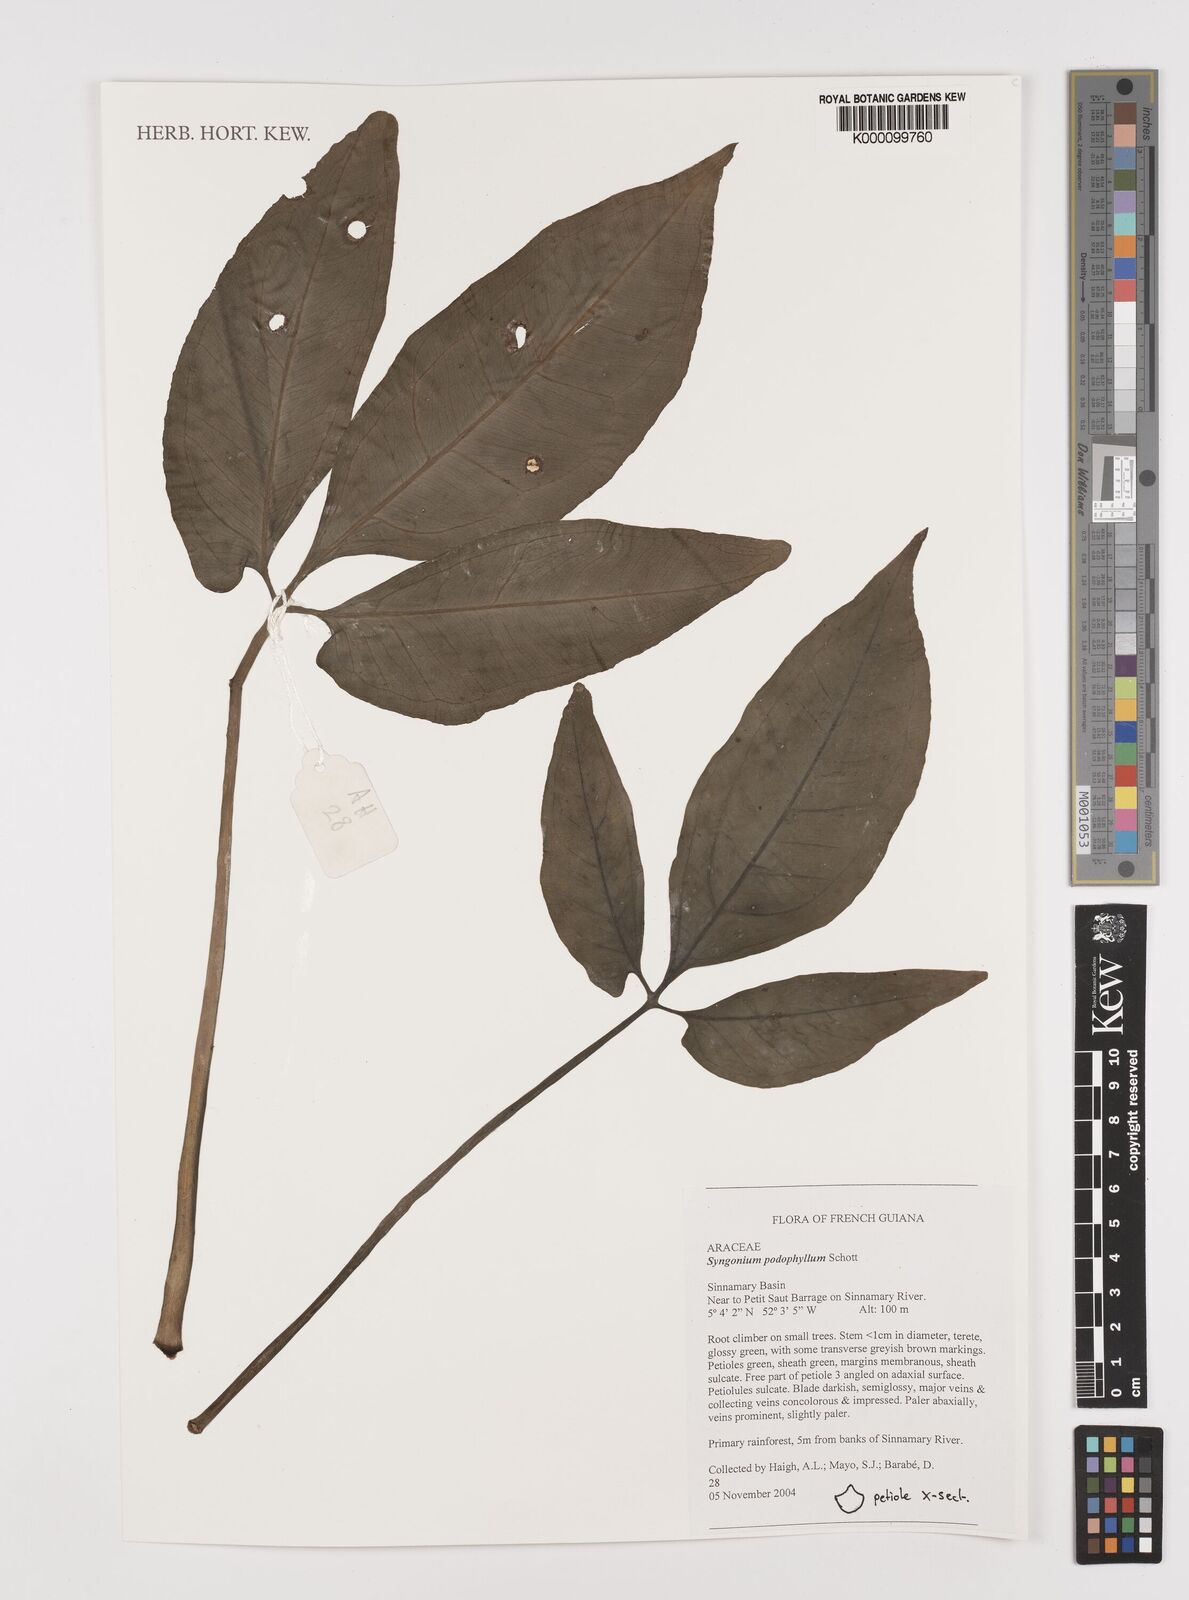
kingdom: Plantae
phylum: Tracheophyta
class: Liliopsida
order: Alismatales
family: Araceae
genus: Syngonium
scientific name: Syngonium podophyllum
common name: American evergreen
